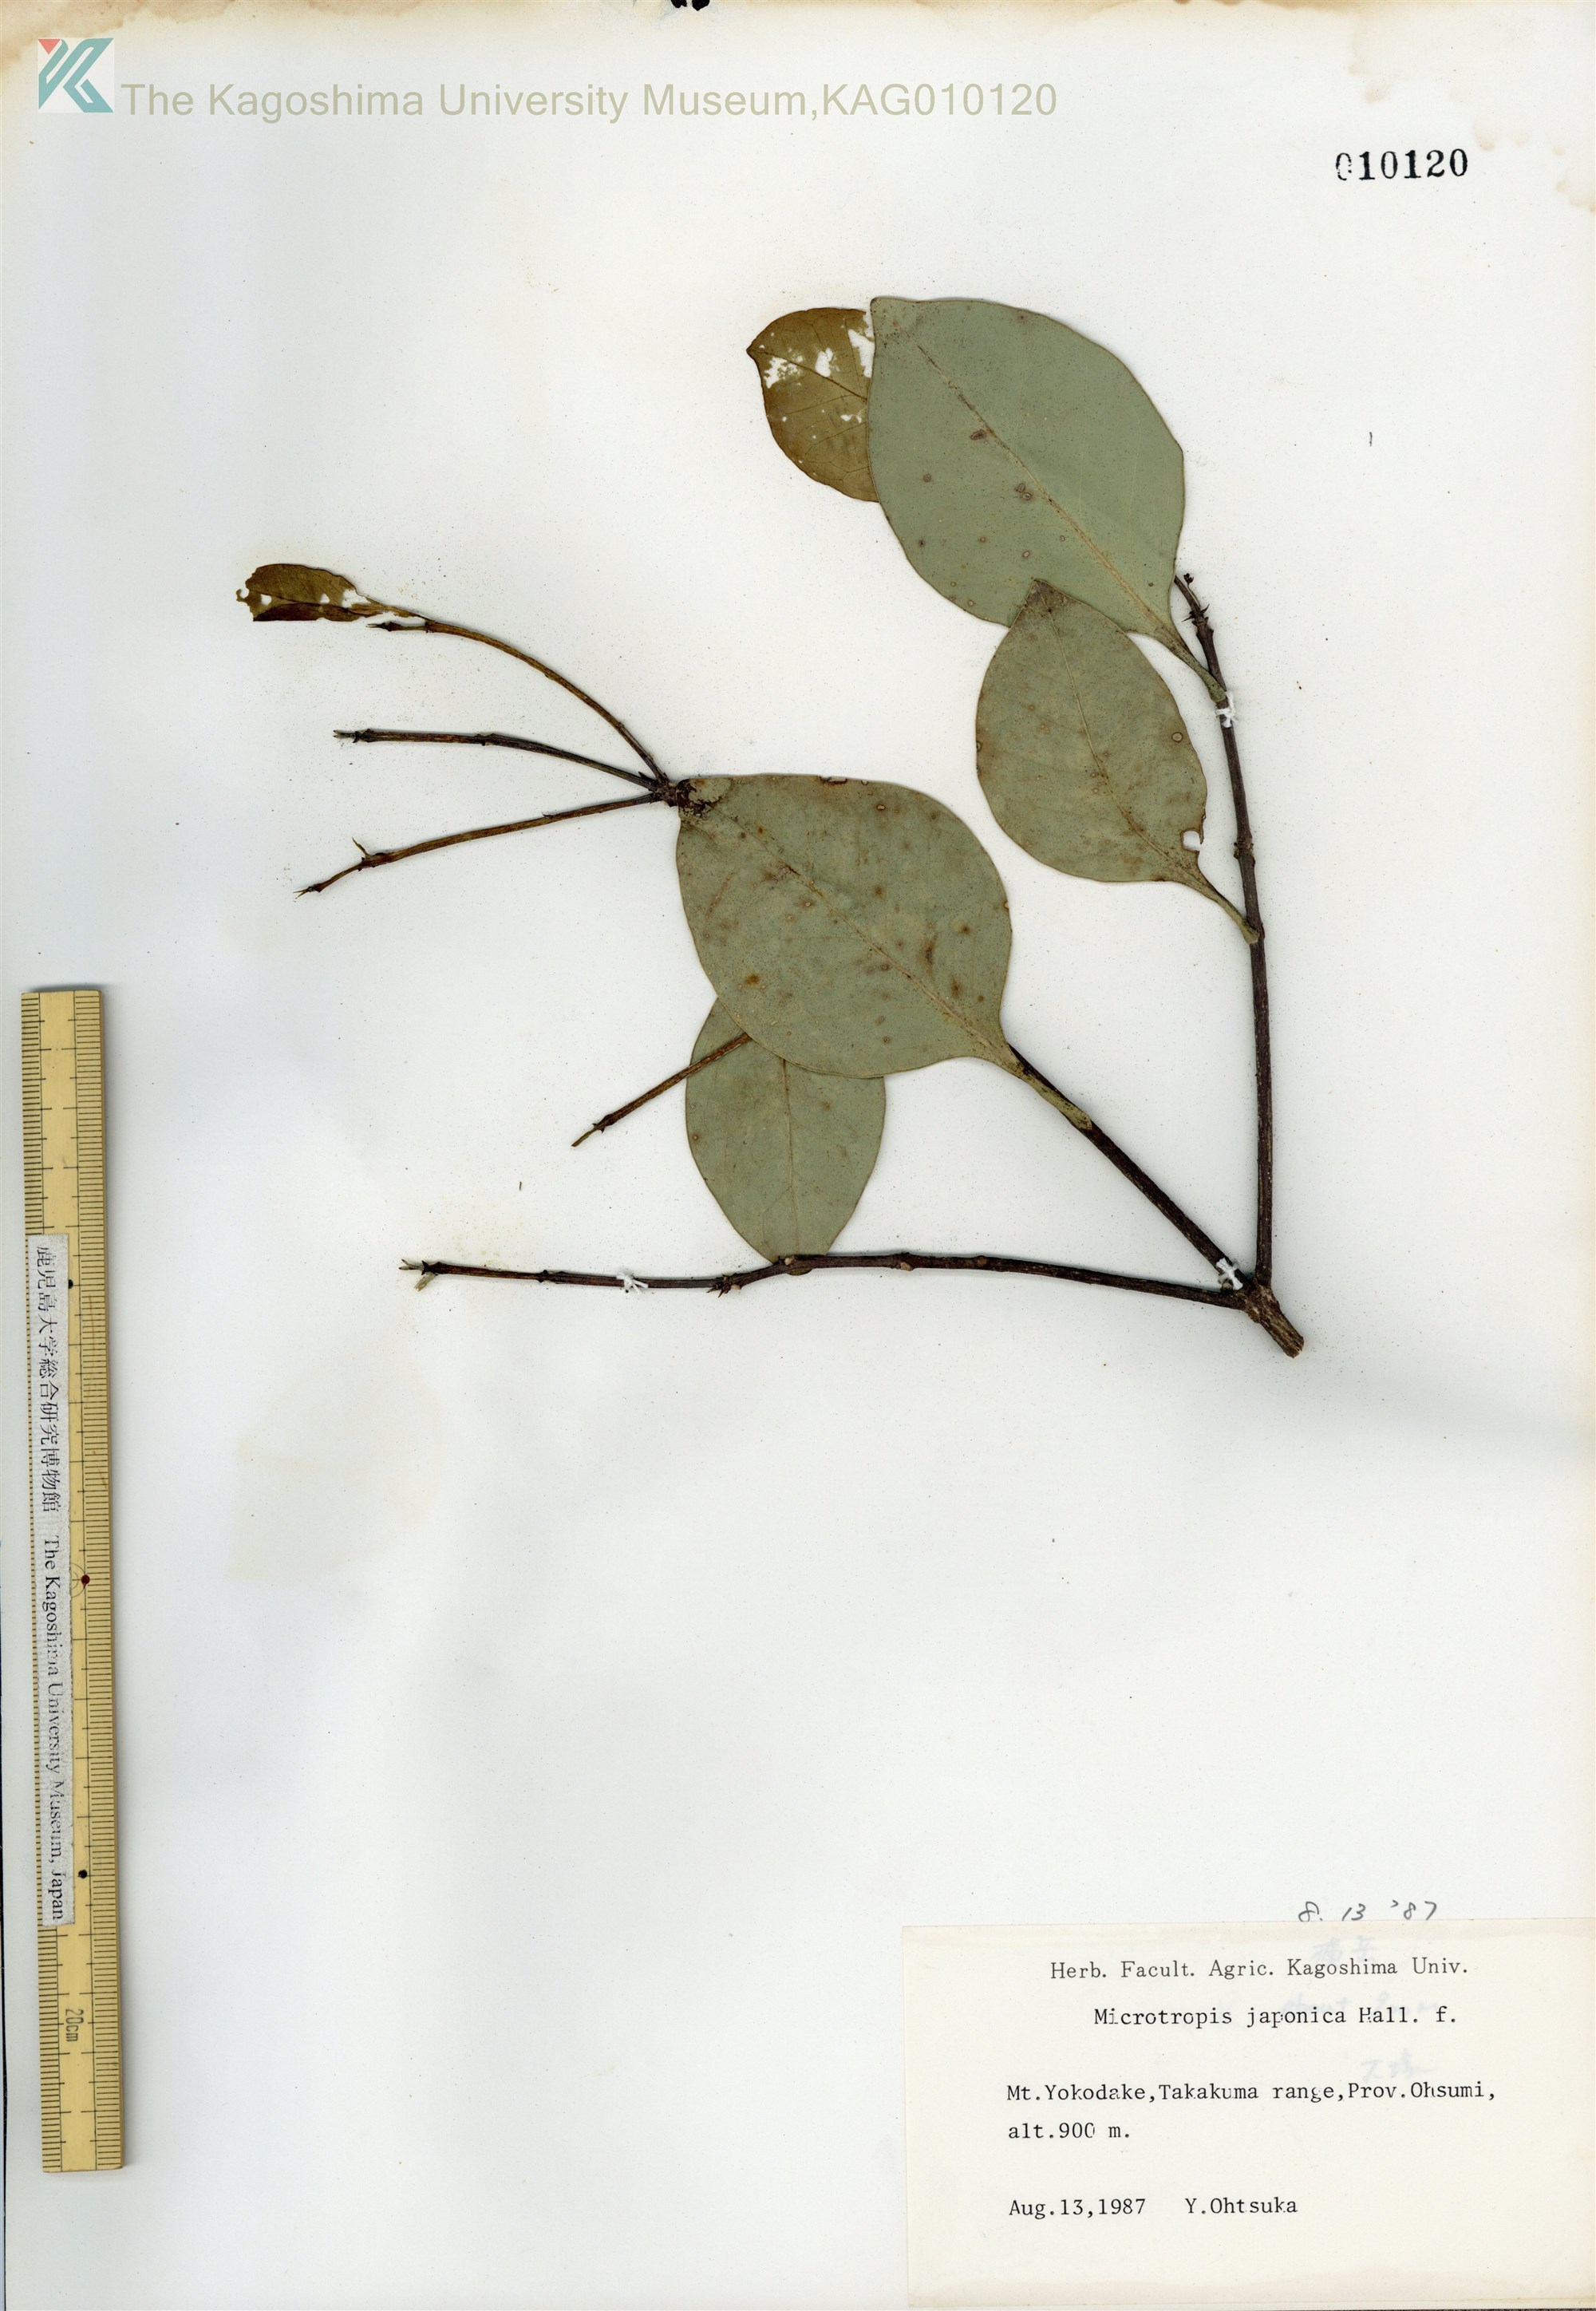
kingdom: Plantae
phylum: Tracheophyta
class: Magnoliopsida
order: Celastrales
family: Celastraceae
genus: Microtropis
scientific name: Microtropis japonica
